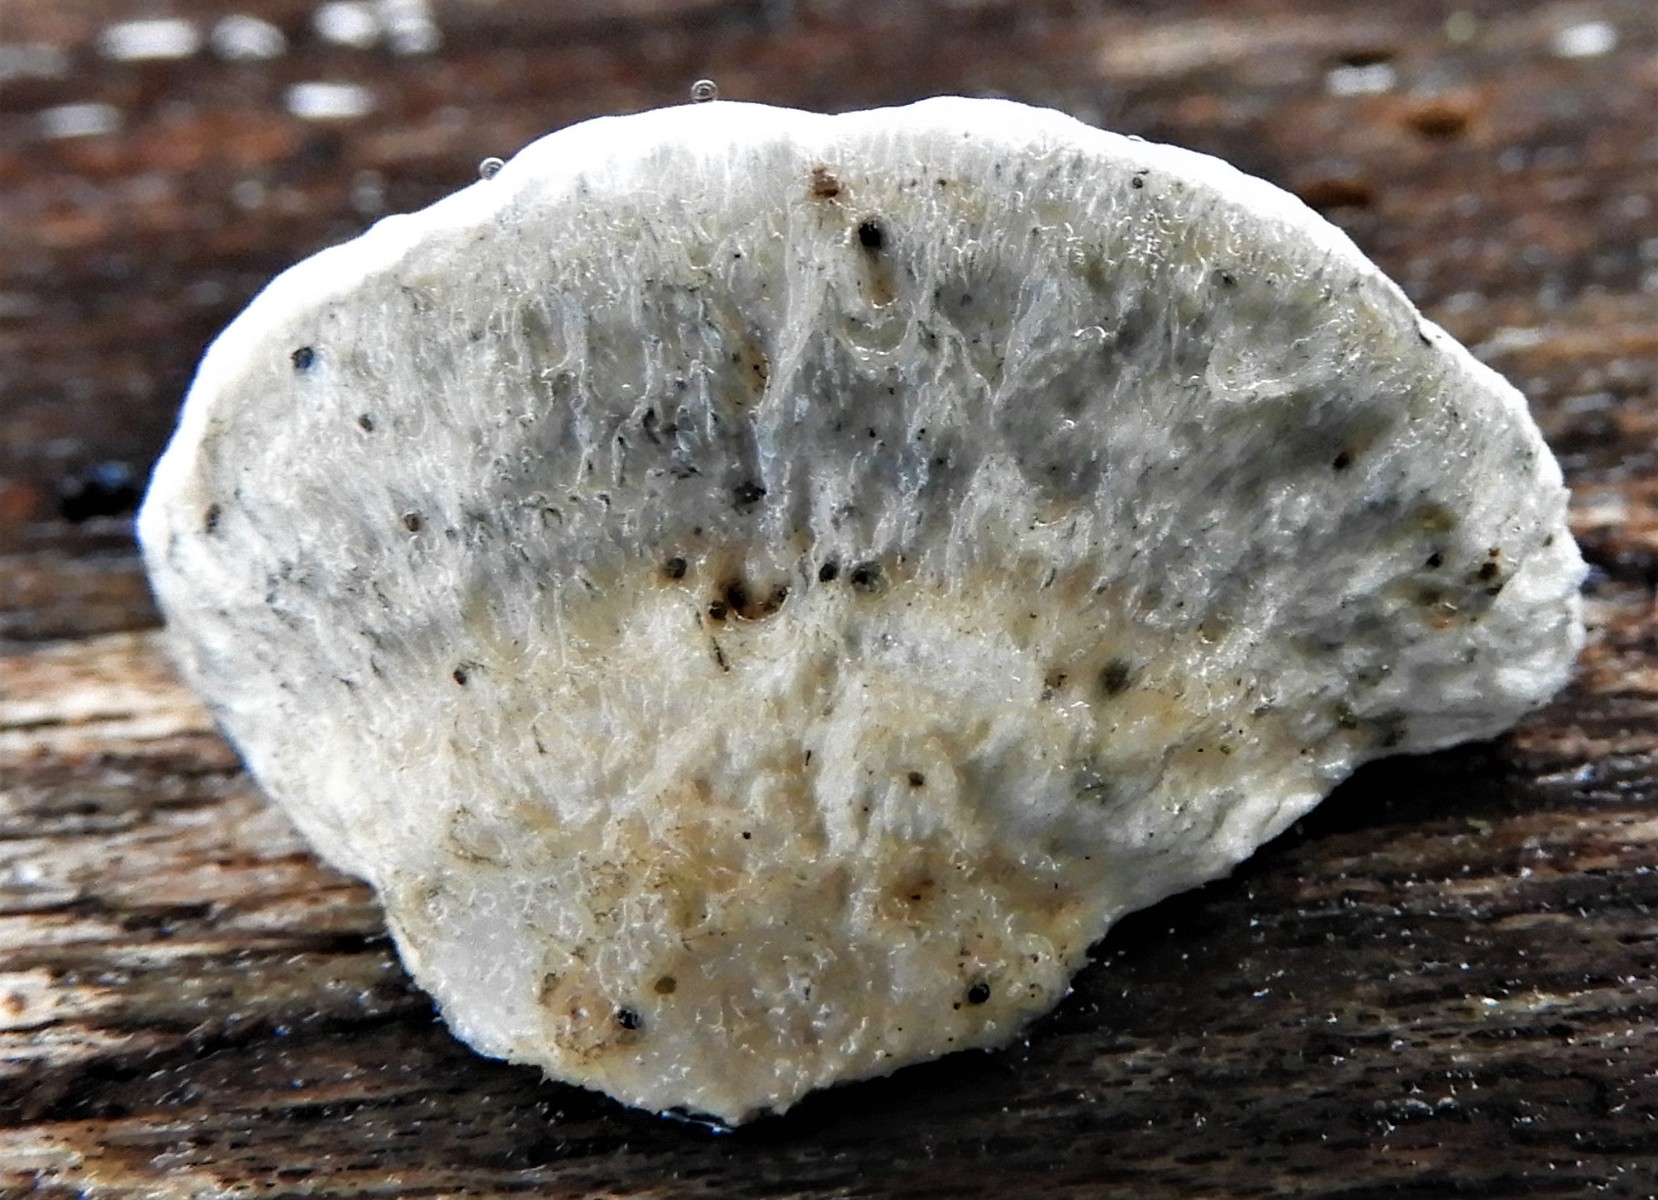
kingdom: Fungi
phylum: Basidiomycota
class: Agaricomycetes
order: Polyporales
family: Polyporaceae
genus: Cyanosporus
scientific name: Cyanosporus alni
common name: blegblå kødporesvamp
